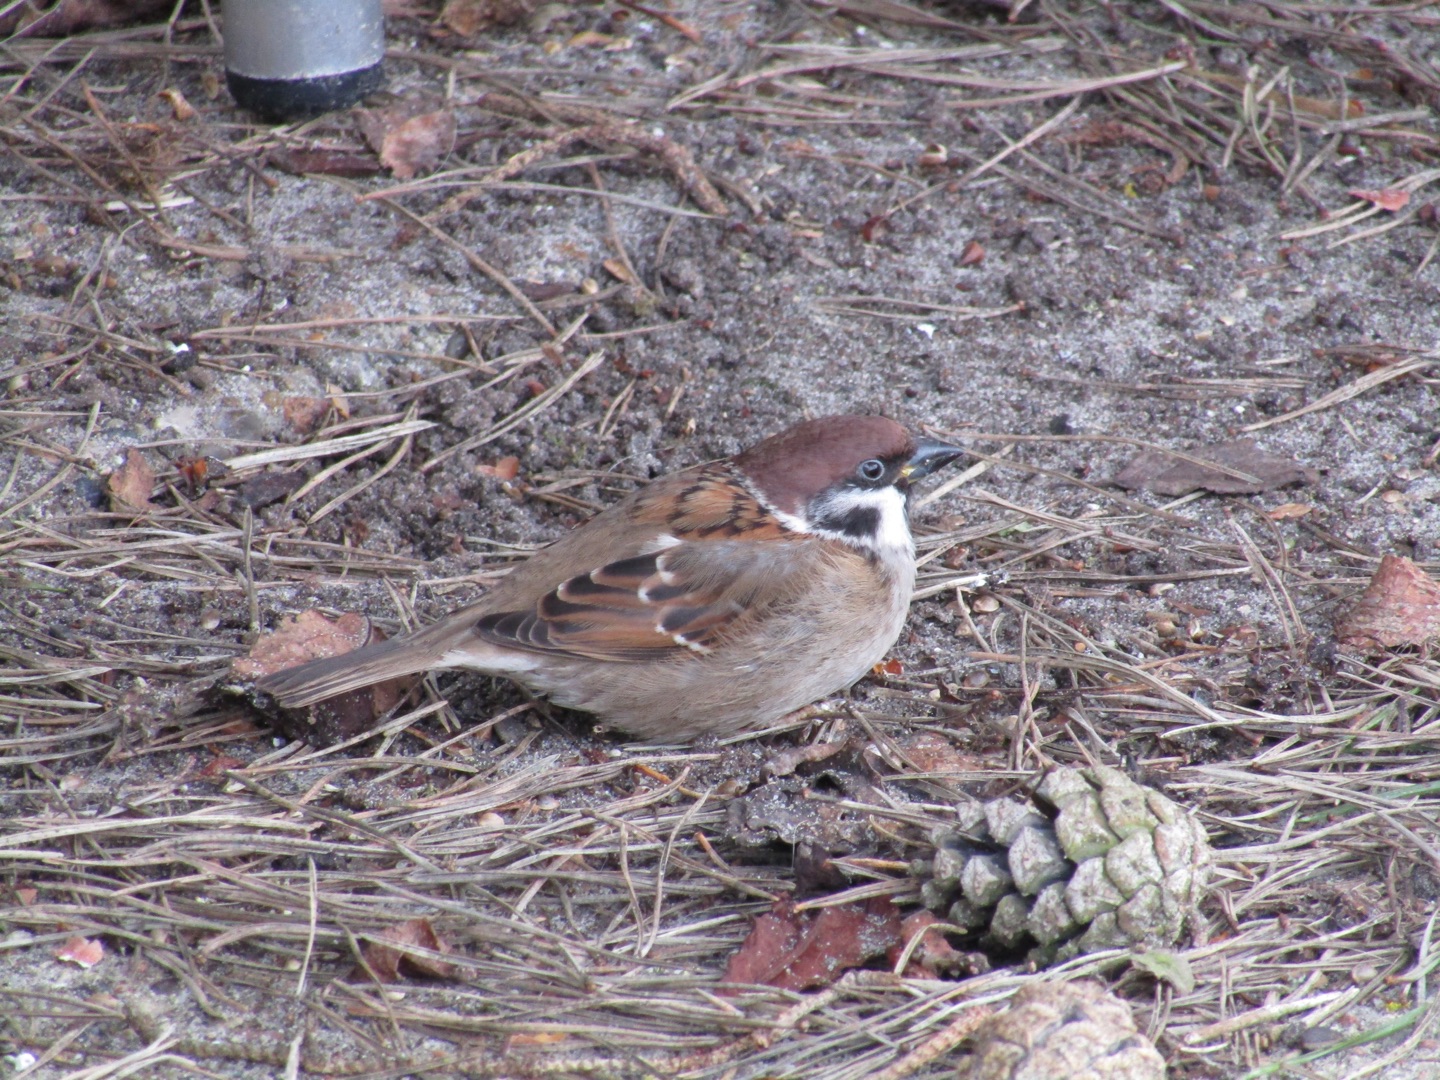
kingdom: Animalia
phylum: Chordata
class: Aves
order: Passeriformes
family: Passeridae
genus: Passer
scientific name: Passer montanus
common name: Skovspurv
